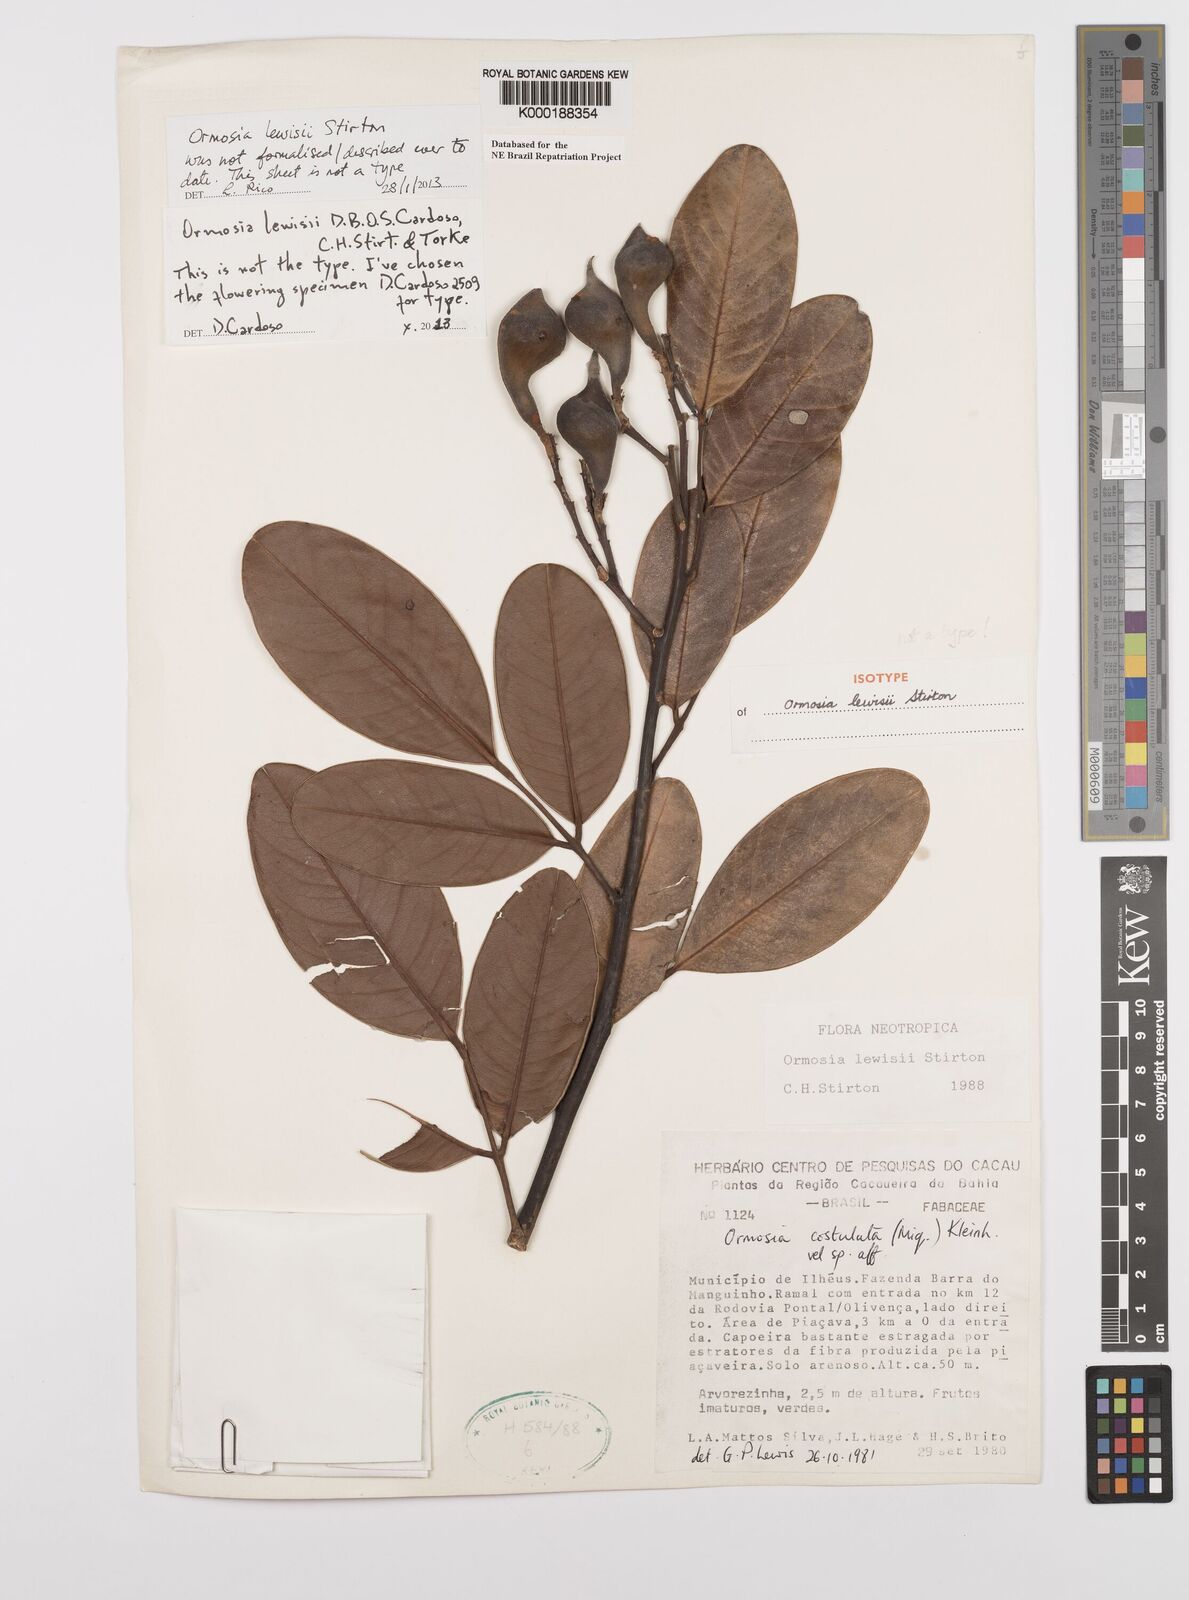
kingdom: Plantae
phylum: Tracheophyta
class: Magnoliopsida
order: Fabales
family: Fabaceae
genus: Ormosia
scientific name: Ormosia
